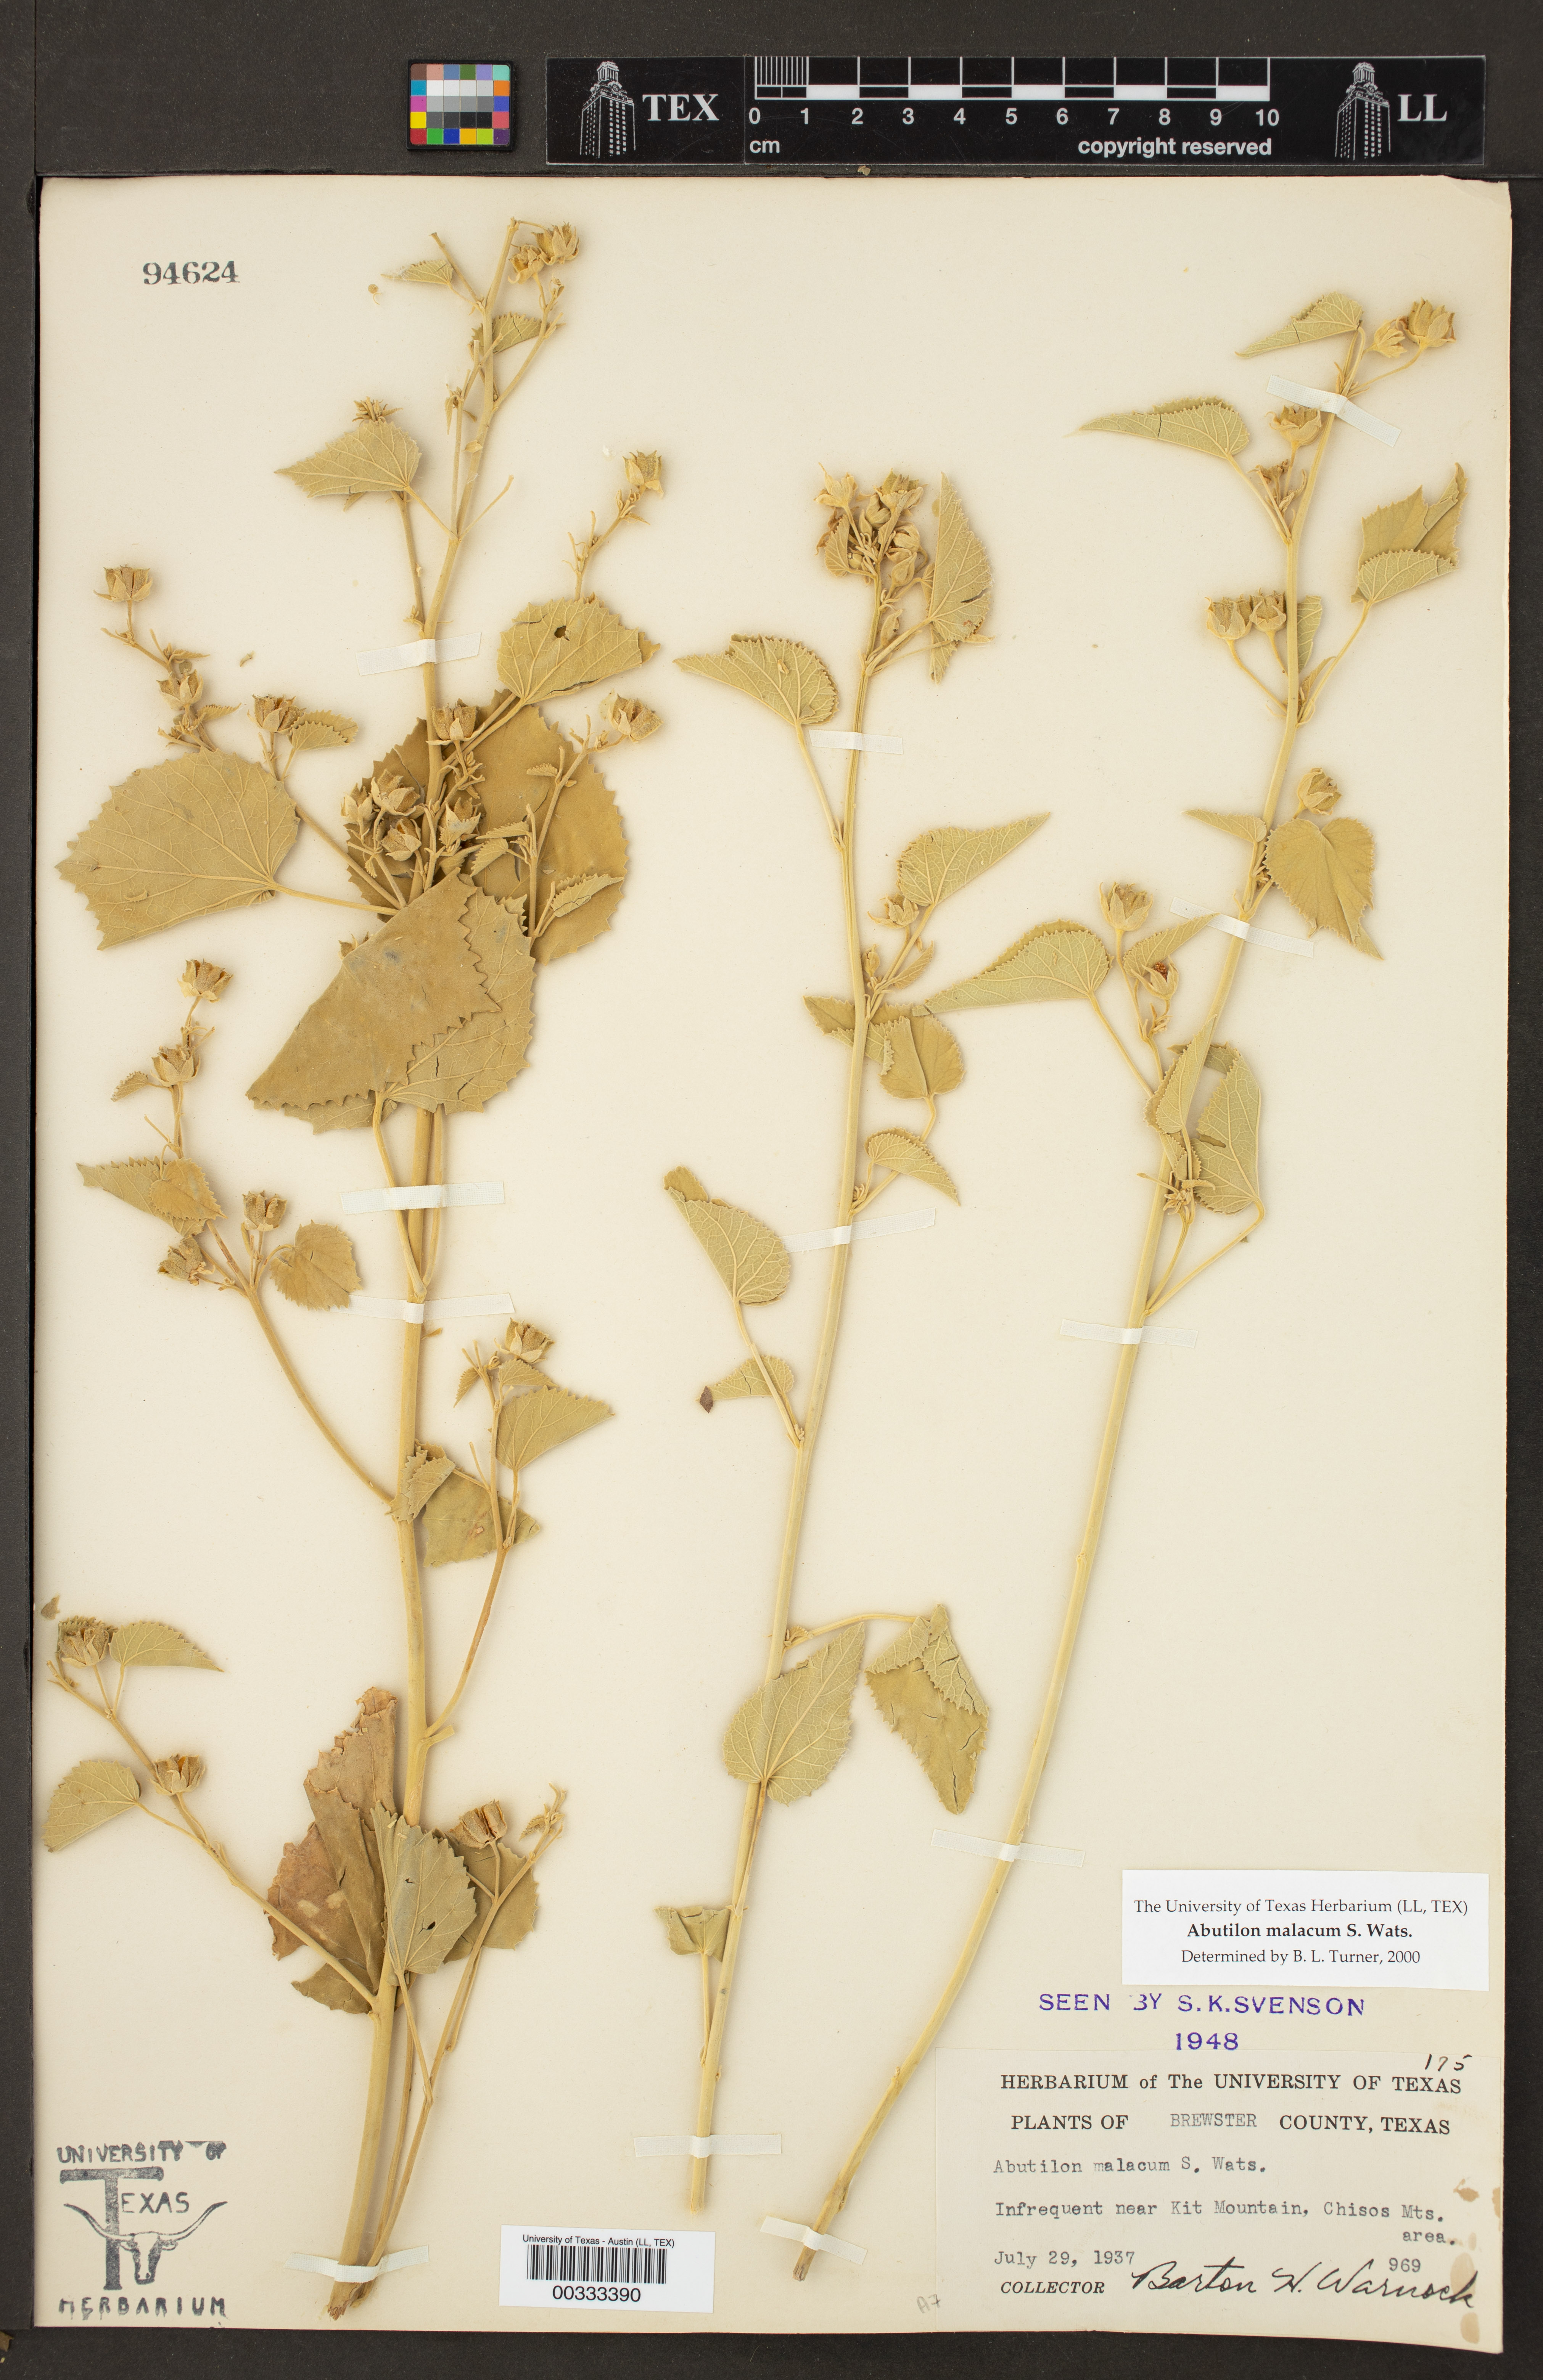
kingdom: Plantae
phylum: Tracheophyta
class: Magnoliopsida
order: Malvales
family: Malvaceae
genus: Abutilon
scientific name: Abutilon malacum
